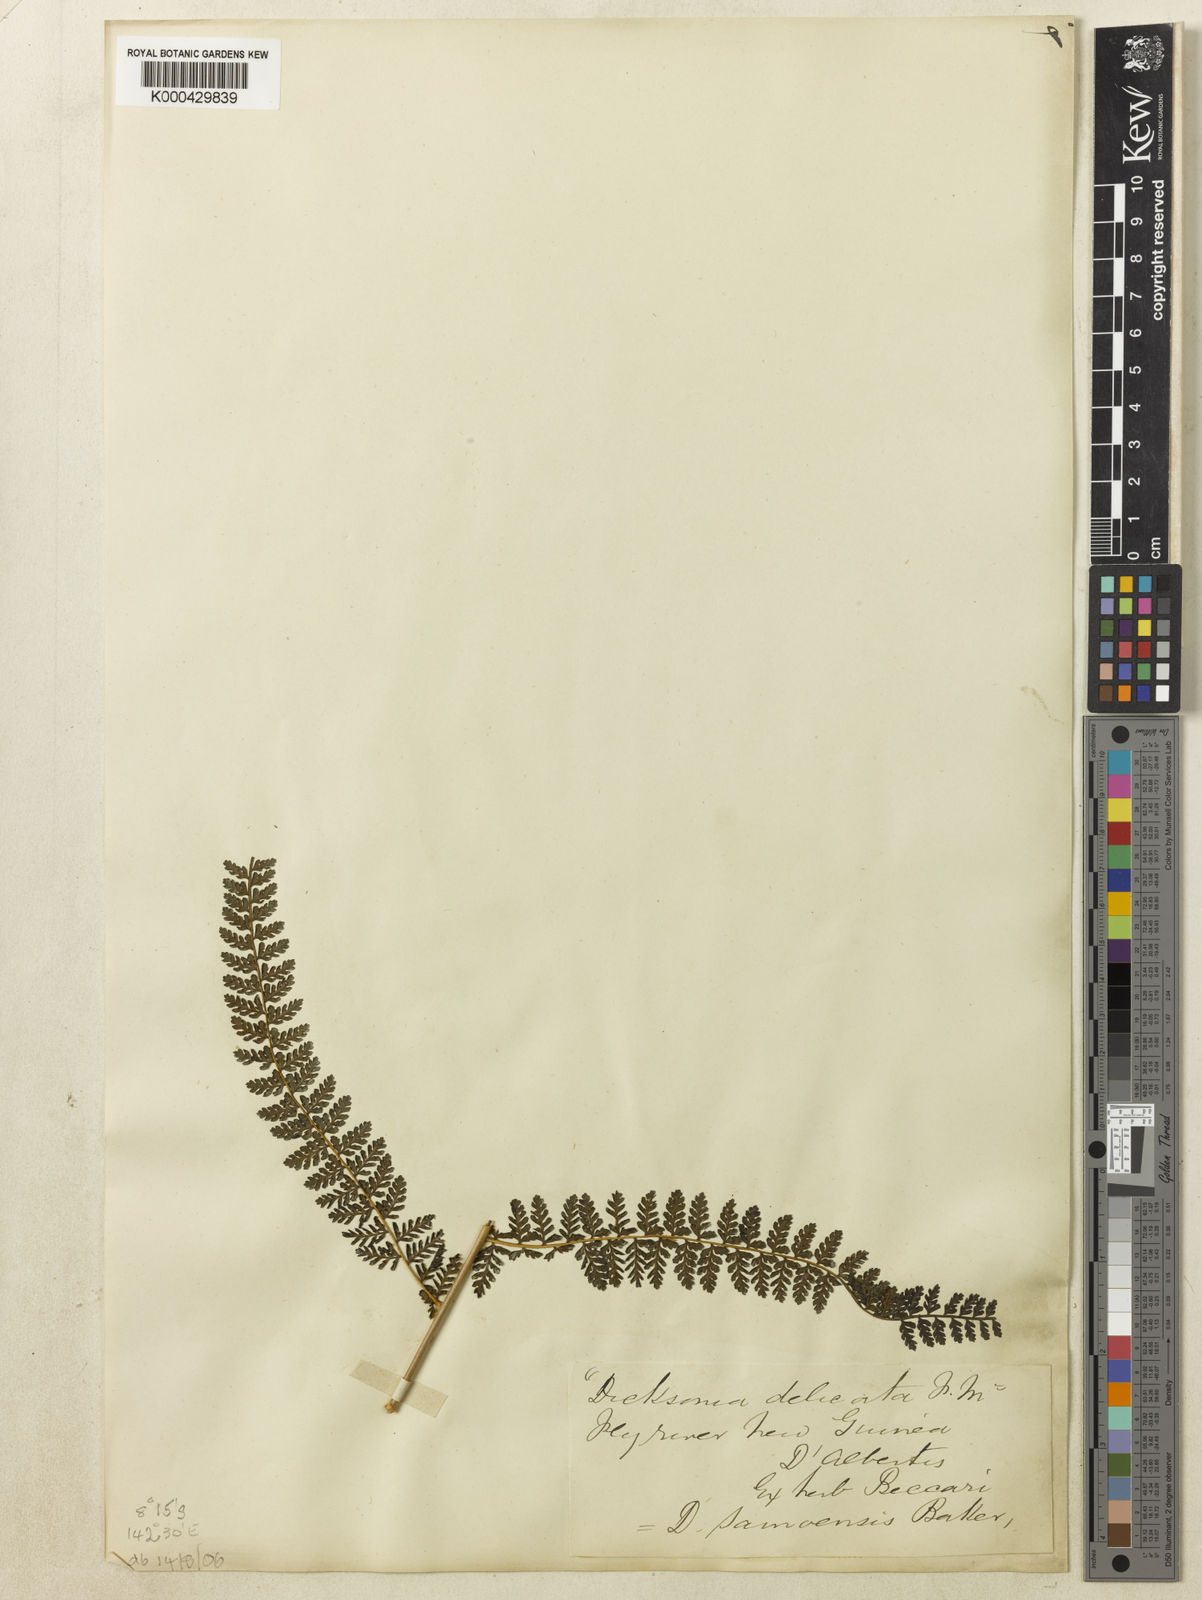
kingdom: Plantae
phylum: Tracheophyta
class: Polypodiopsida
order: Polypodiales
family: Dennstaedtiaceae
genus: Dennstaedtia
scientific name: Dennstaedtia samoensis
